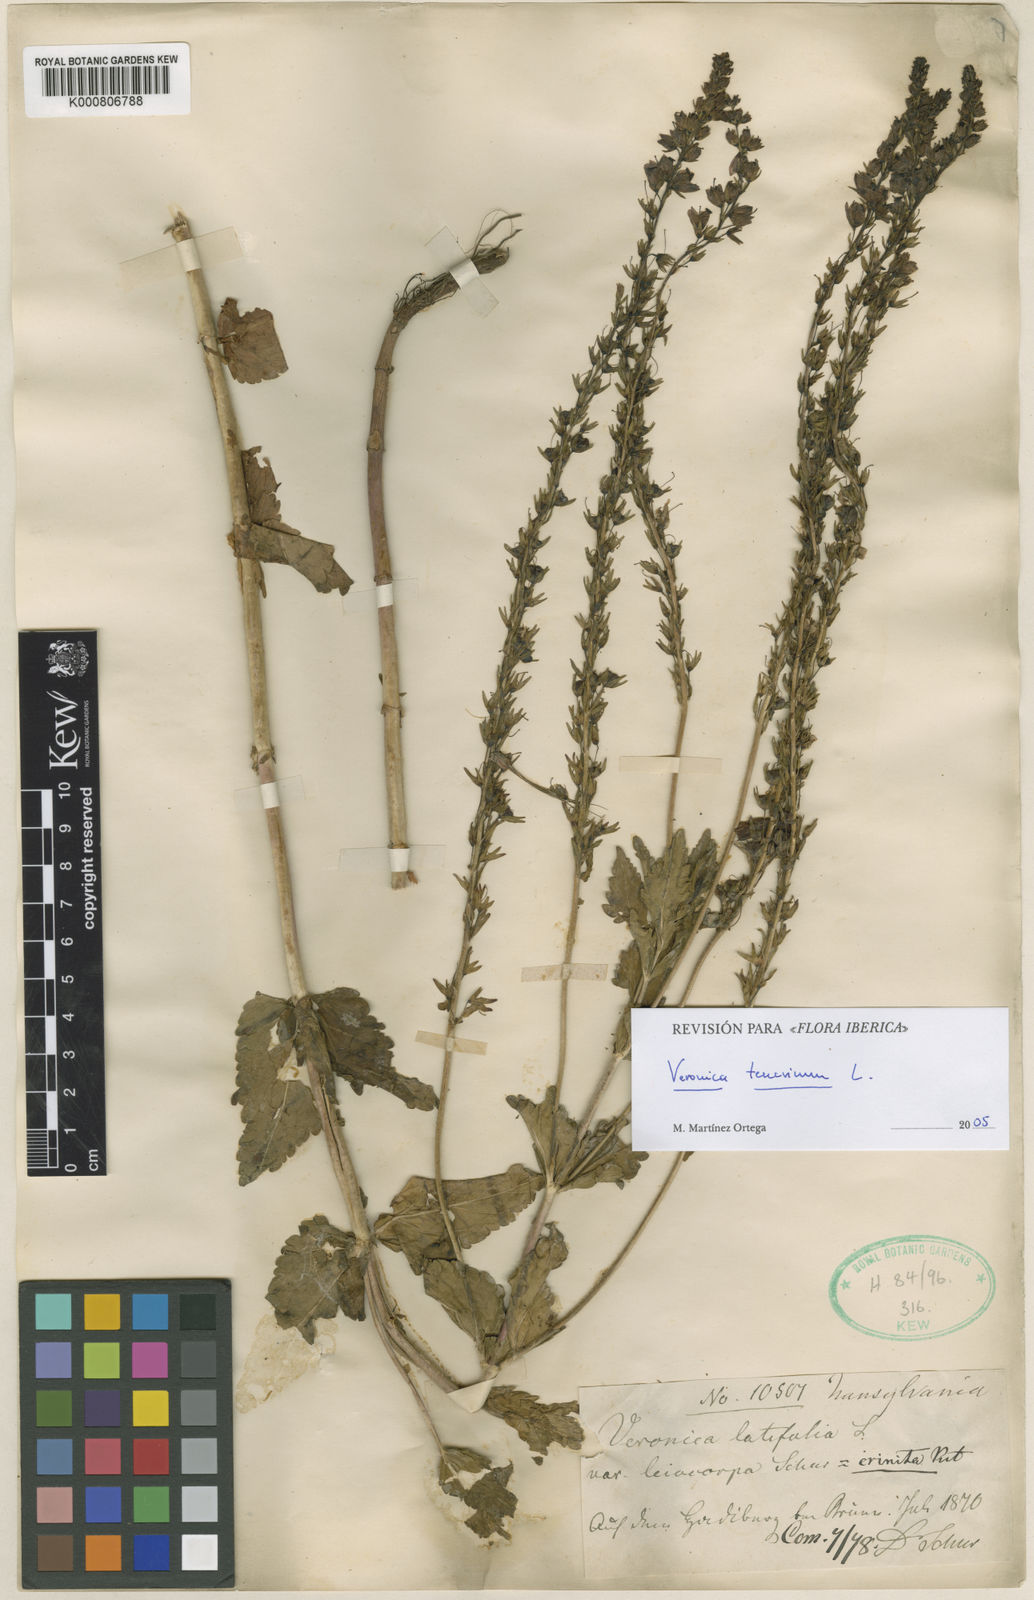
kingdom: Plantae
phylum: Tracheophyta
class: Magnoliopsida
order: Lamiales
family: Plantaginaceae
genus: Veronica
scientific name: Veronica teucrium
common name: Large speedwell
